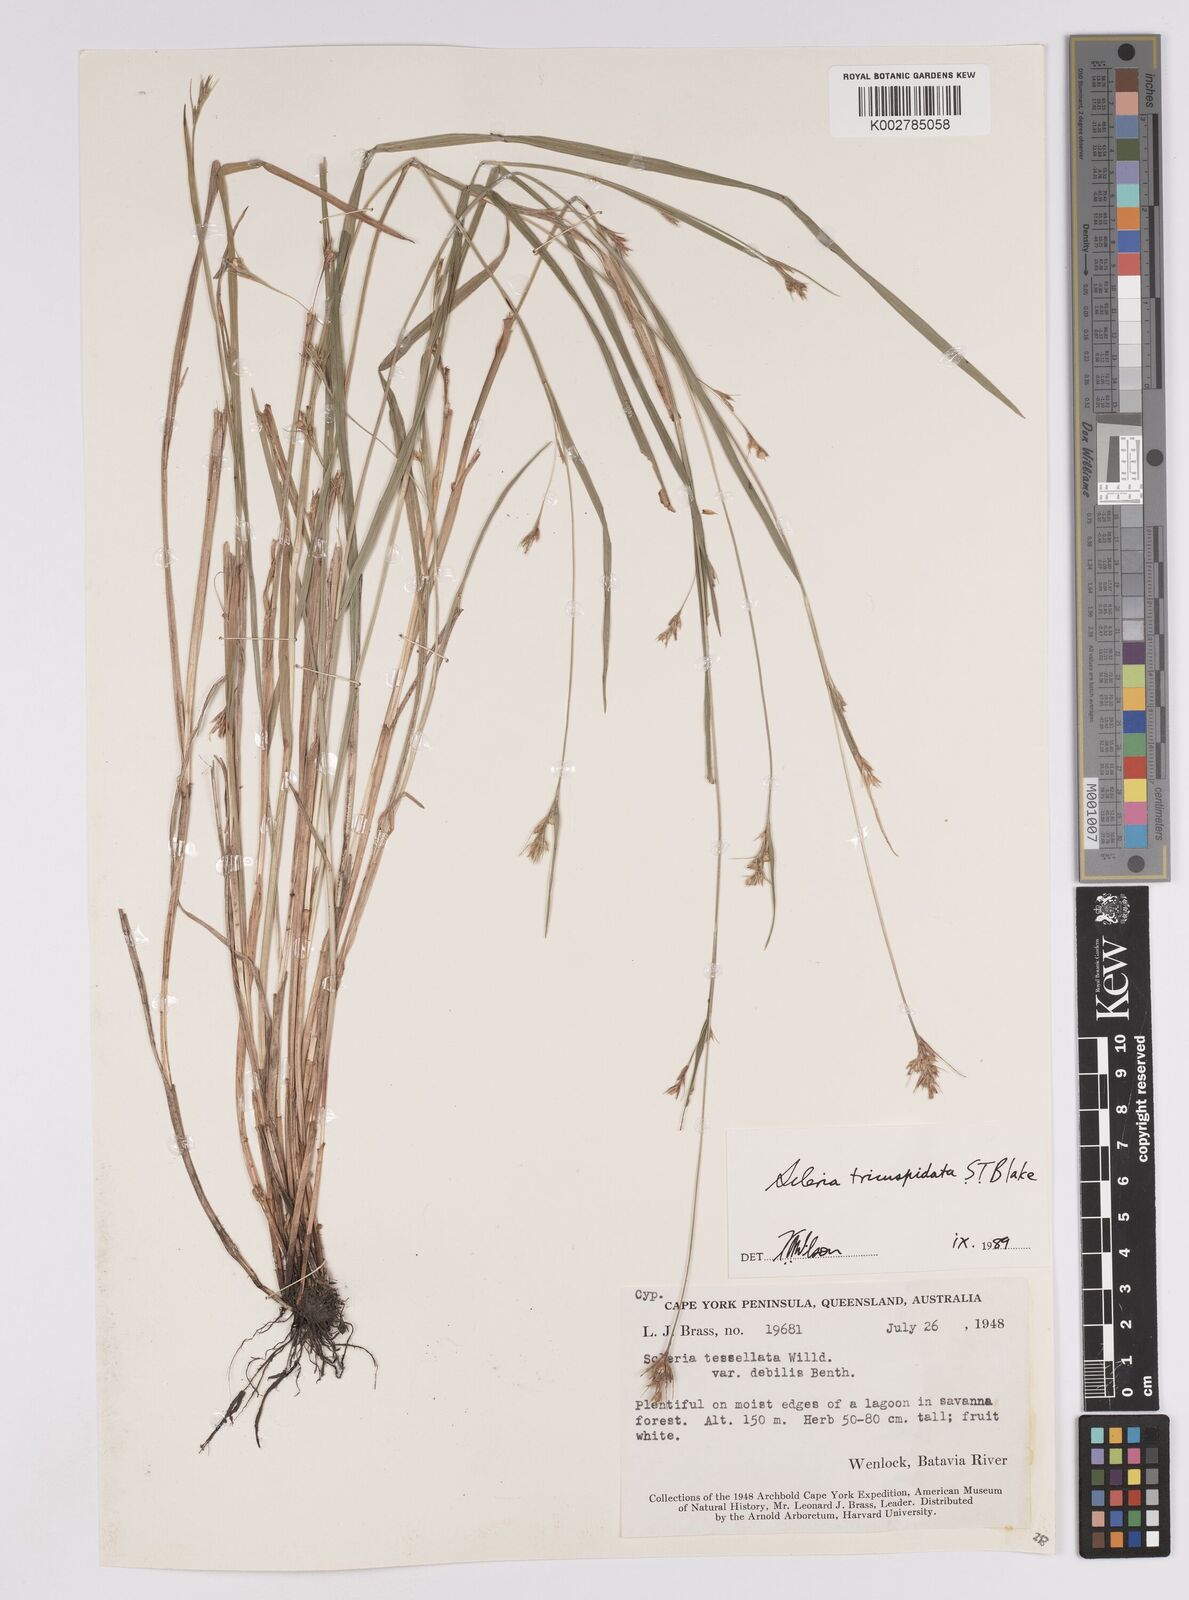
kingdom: Plantae
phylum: Tracheophyta
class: Liliopsida
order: Poales
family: Cyperaceae
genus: Scleria
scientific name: Scleria tricuspidata
